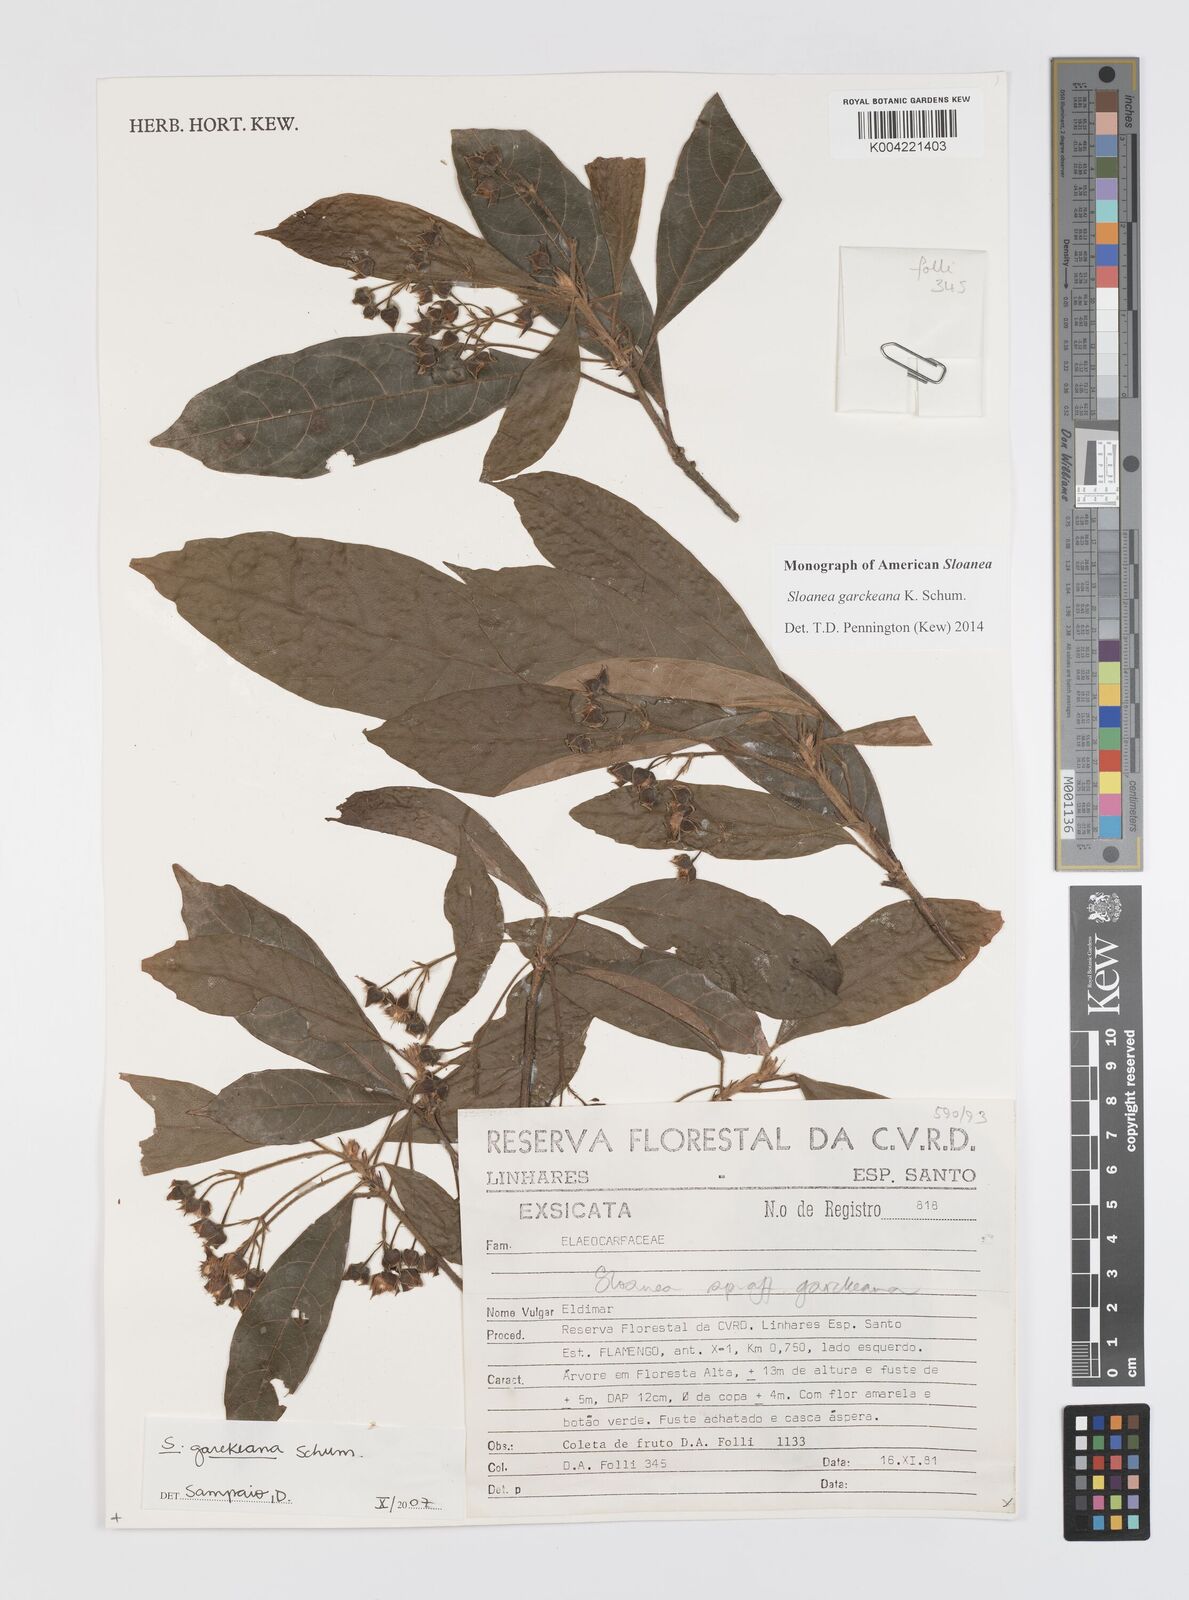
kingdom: Plantae
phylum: Tracheophyta
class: Magnoliopsida
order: Oxalidales
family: Elaeocarpaceae
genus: Sloanea
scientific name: Sloanea garckeana
